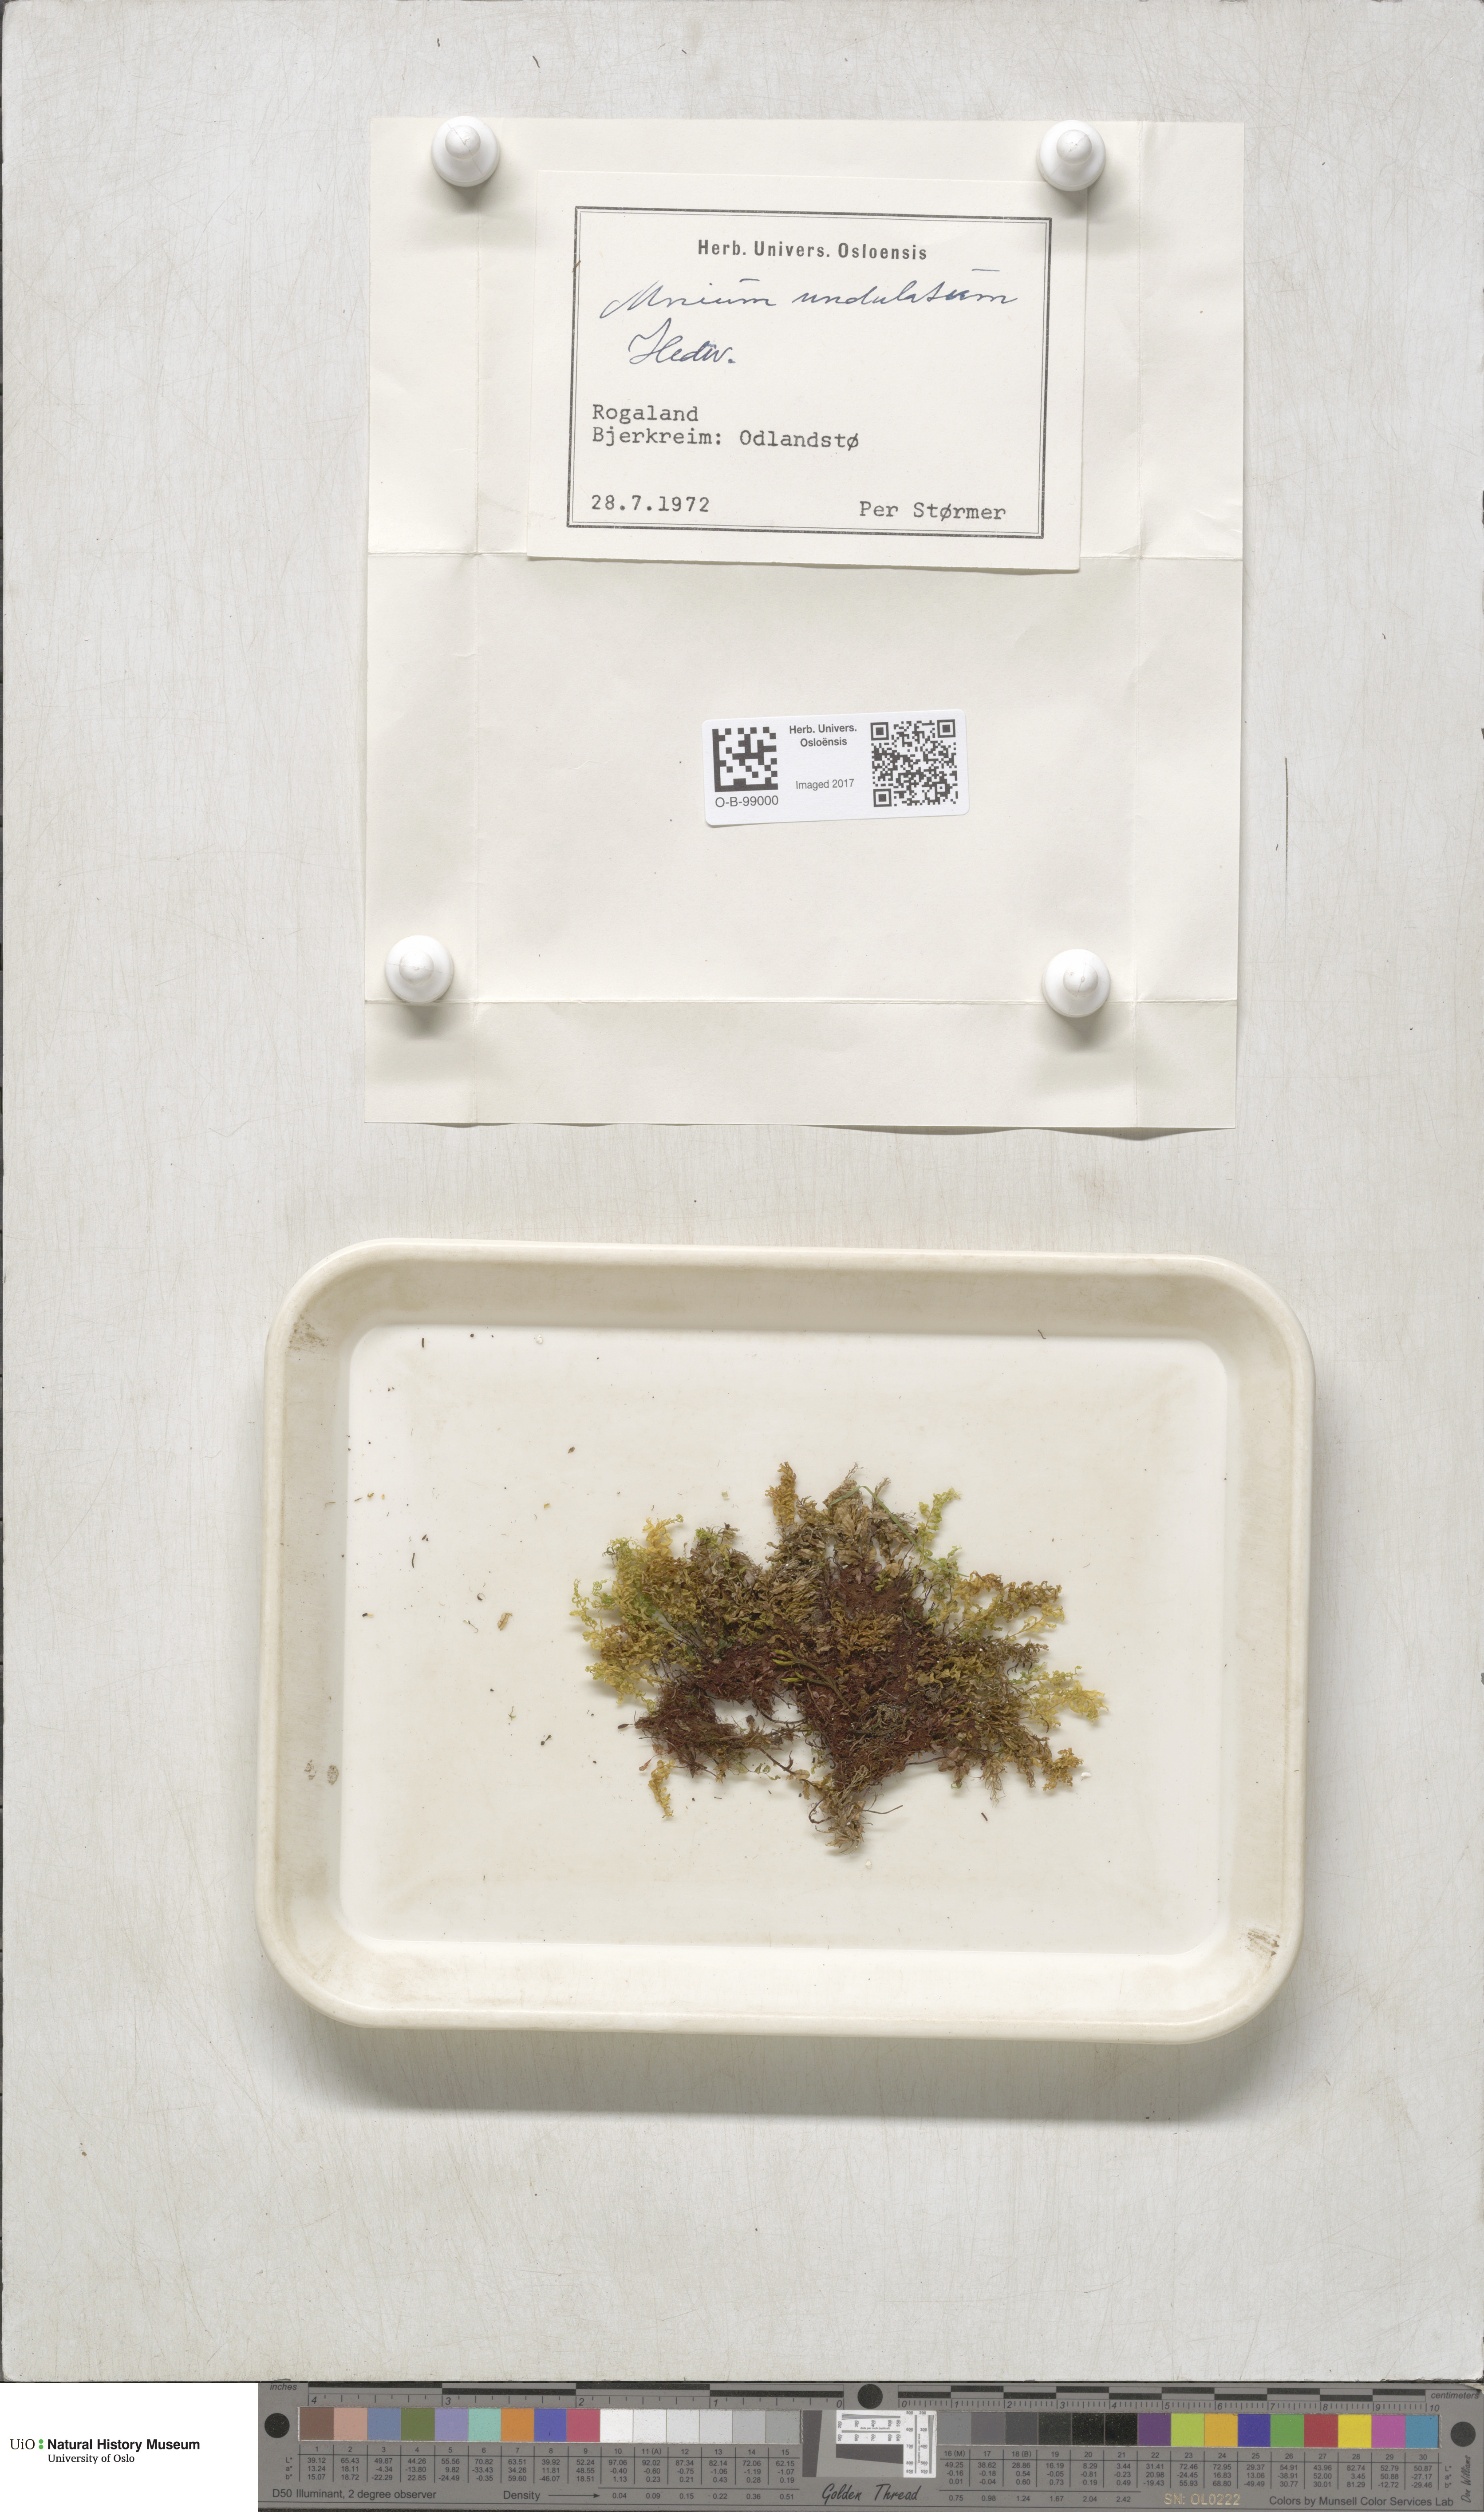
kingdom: Plantae
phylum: Bryophyta
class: Bryopsida
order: Bryales
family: Mniaceae
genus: Plagiomnium
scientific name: Plagiomnium undulatum
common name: Hart's-tongue thyme-moss
